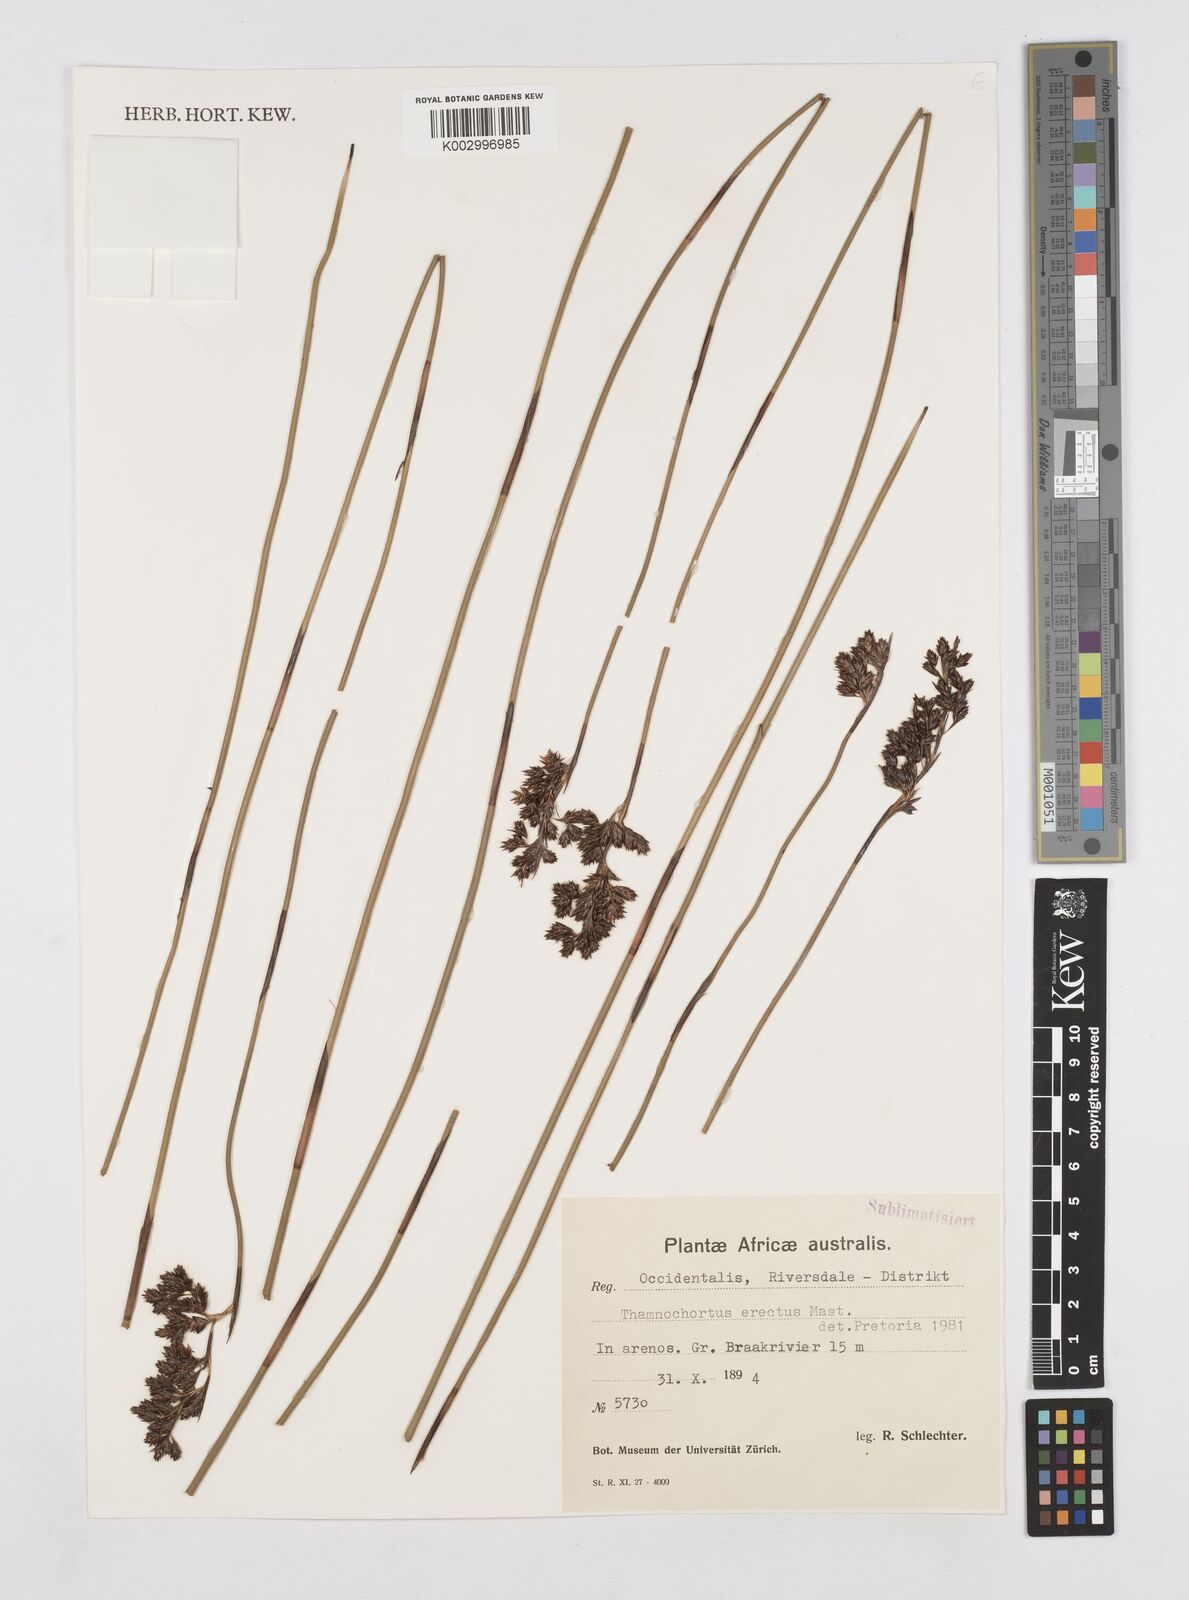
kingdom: Plantae
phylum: Tracheophyta
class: Liliopsida
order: Poales
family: Restionaceae
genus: Thamnochortus
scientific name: Thamnochortus erectus
